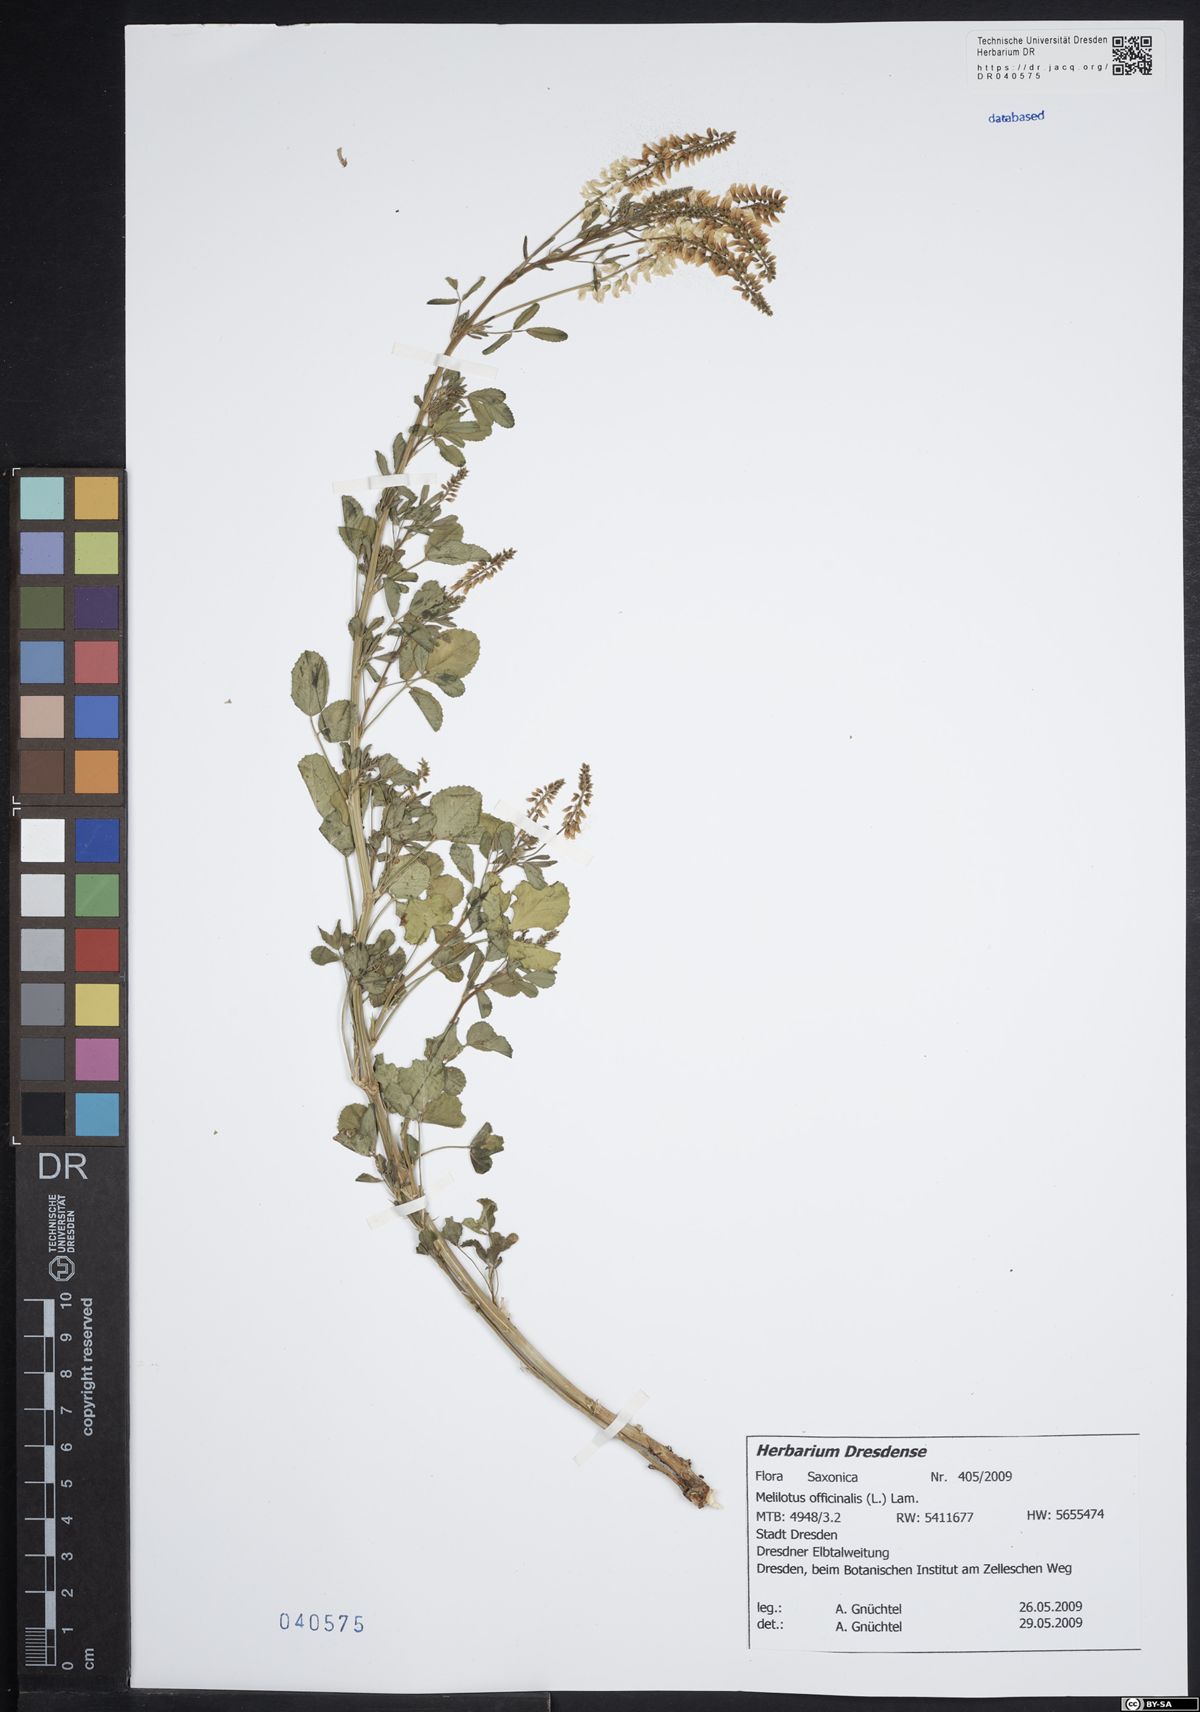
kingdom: Plantae
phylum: Tracheophyta
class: Magnoliopsida
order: Fabales
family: Fabaceae
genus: Melilotus
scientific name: Melilotus officinalis
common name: Sweetclover
